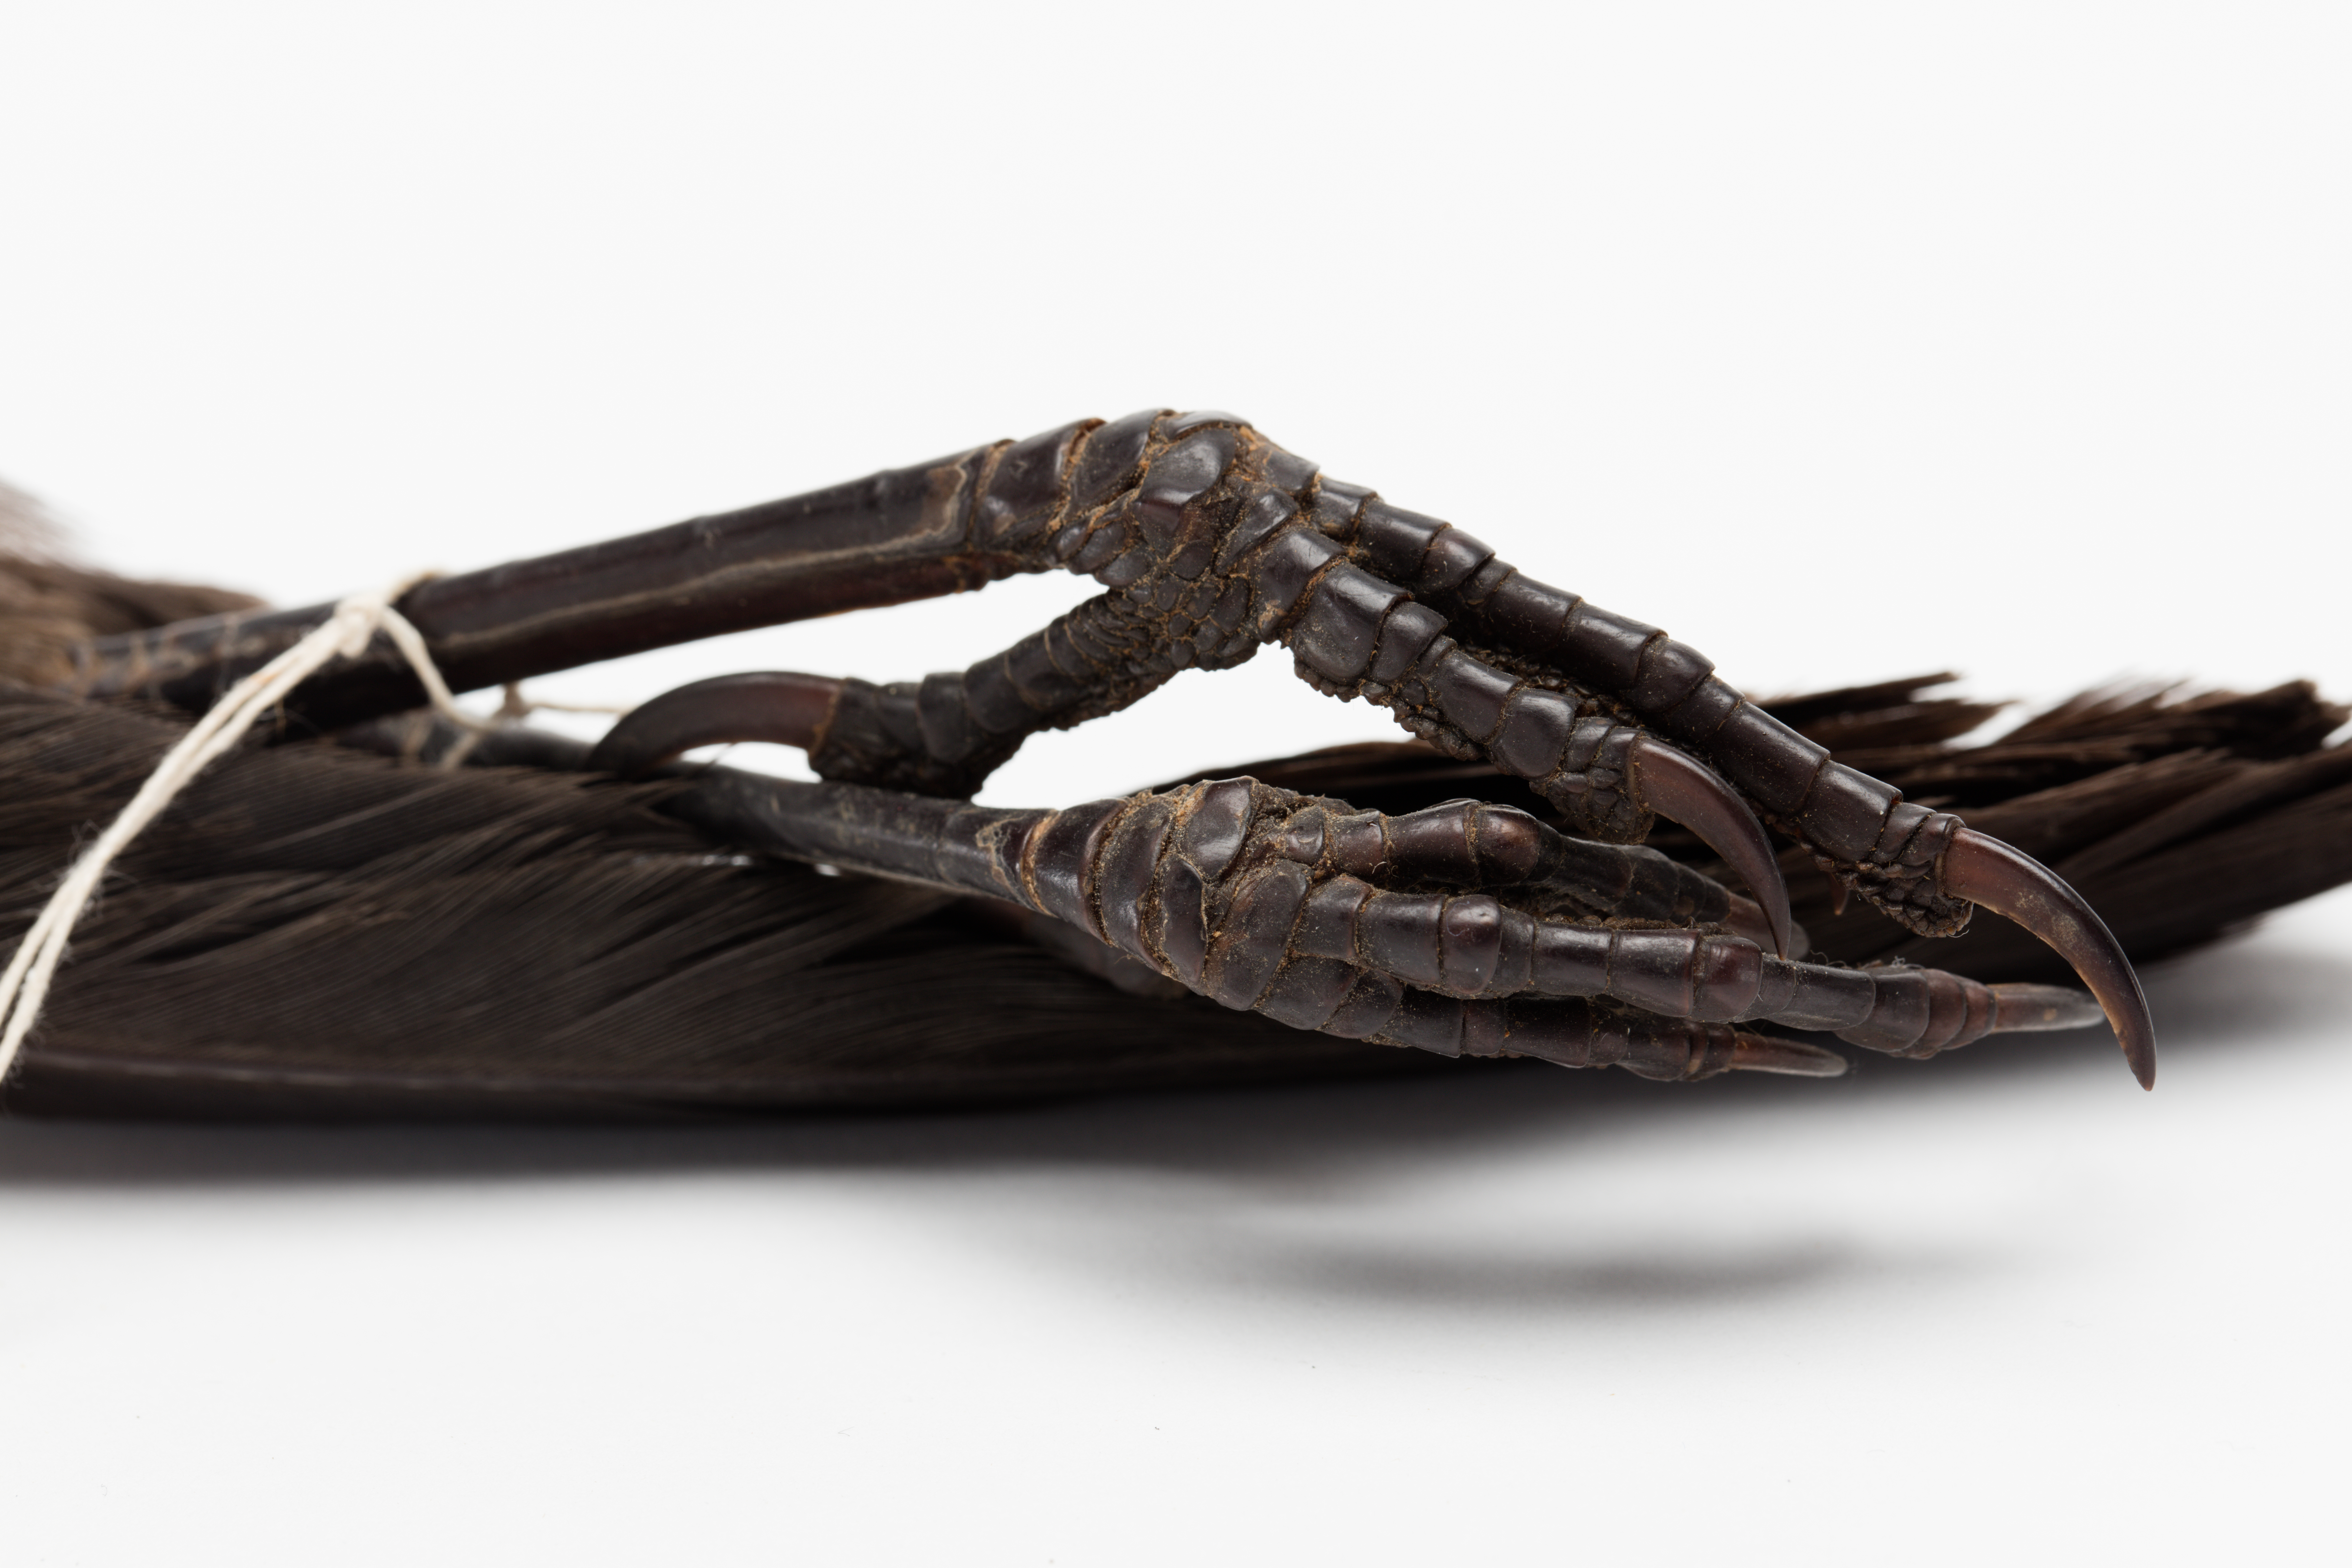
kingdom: Animalia
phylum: Chordata
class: Aves
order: Passeriformes
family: Callaeatidae
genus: Callaeas
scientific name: Callaeas cinereus
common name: South island kokako
